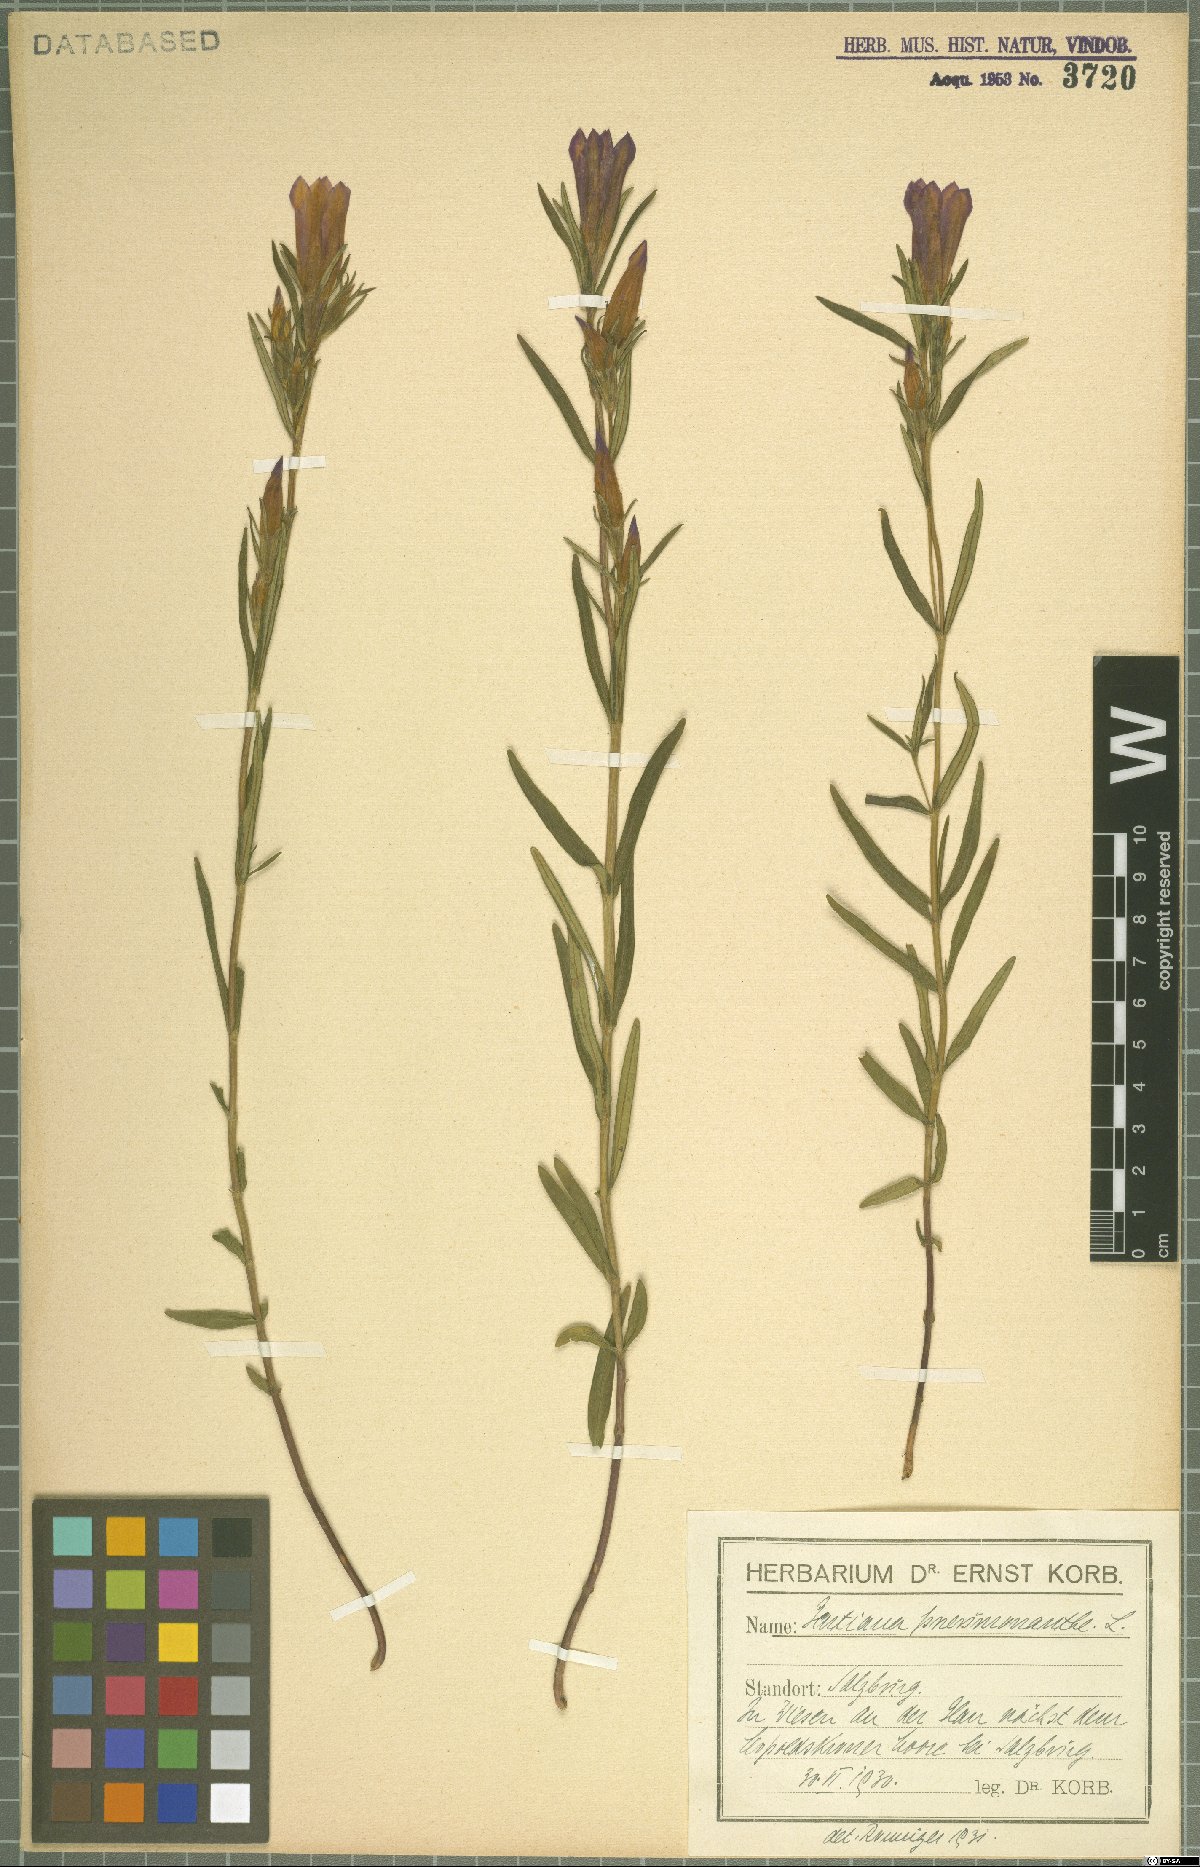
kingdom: Plantae
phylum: Tracheophyta
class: Magnoliopsida
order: Gentianales
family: Gentianaceae
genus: Gentiana
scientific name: Gentiana pneumonanthe
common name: Marsh gentian
